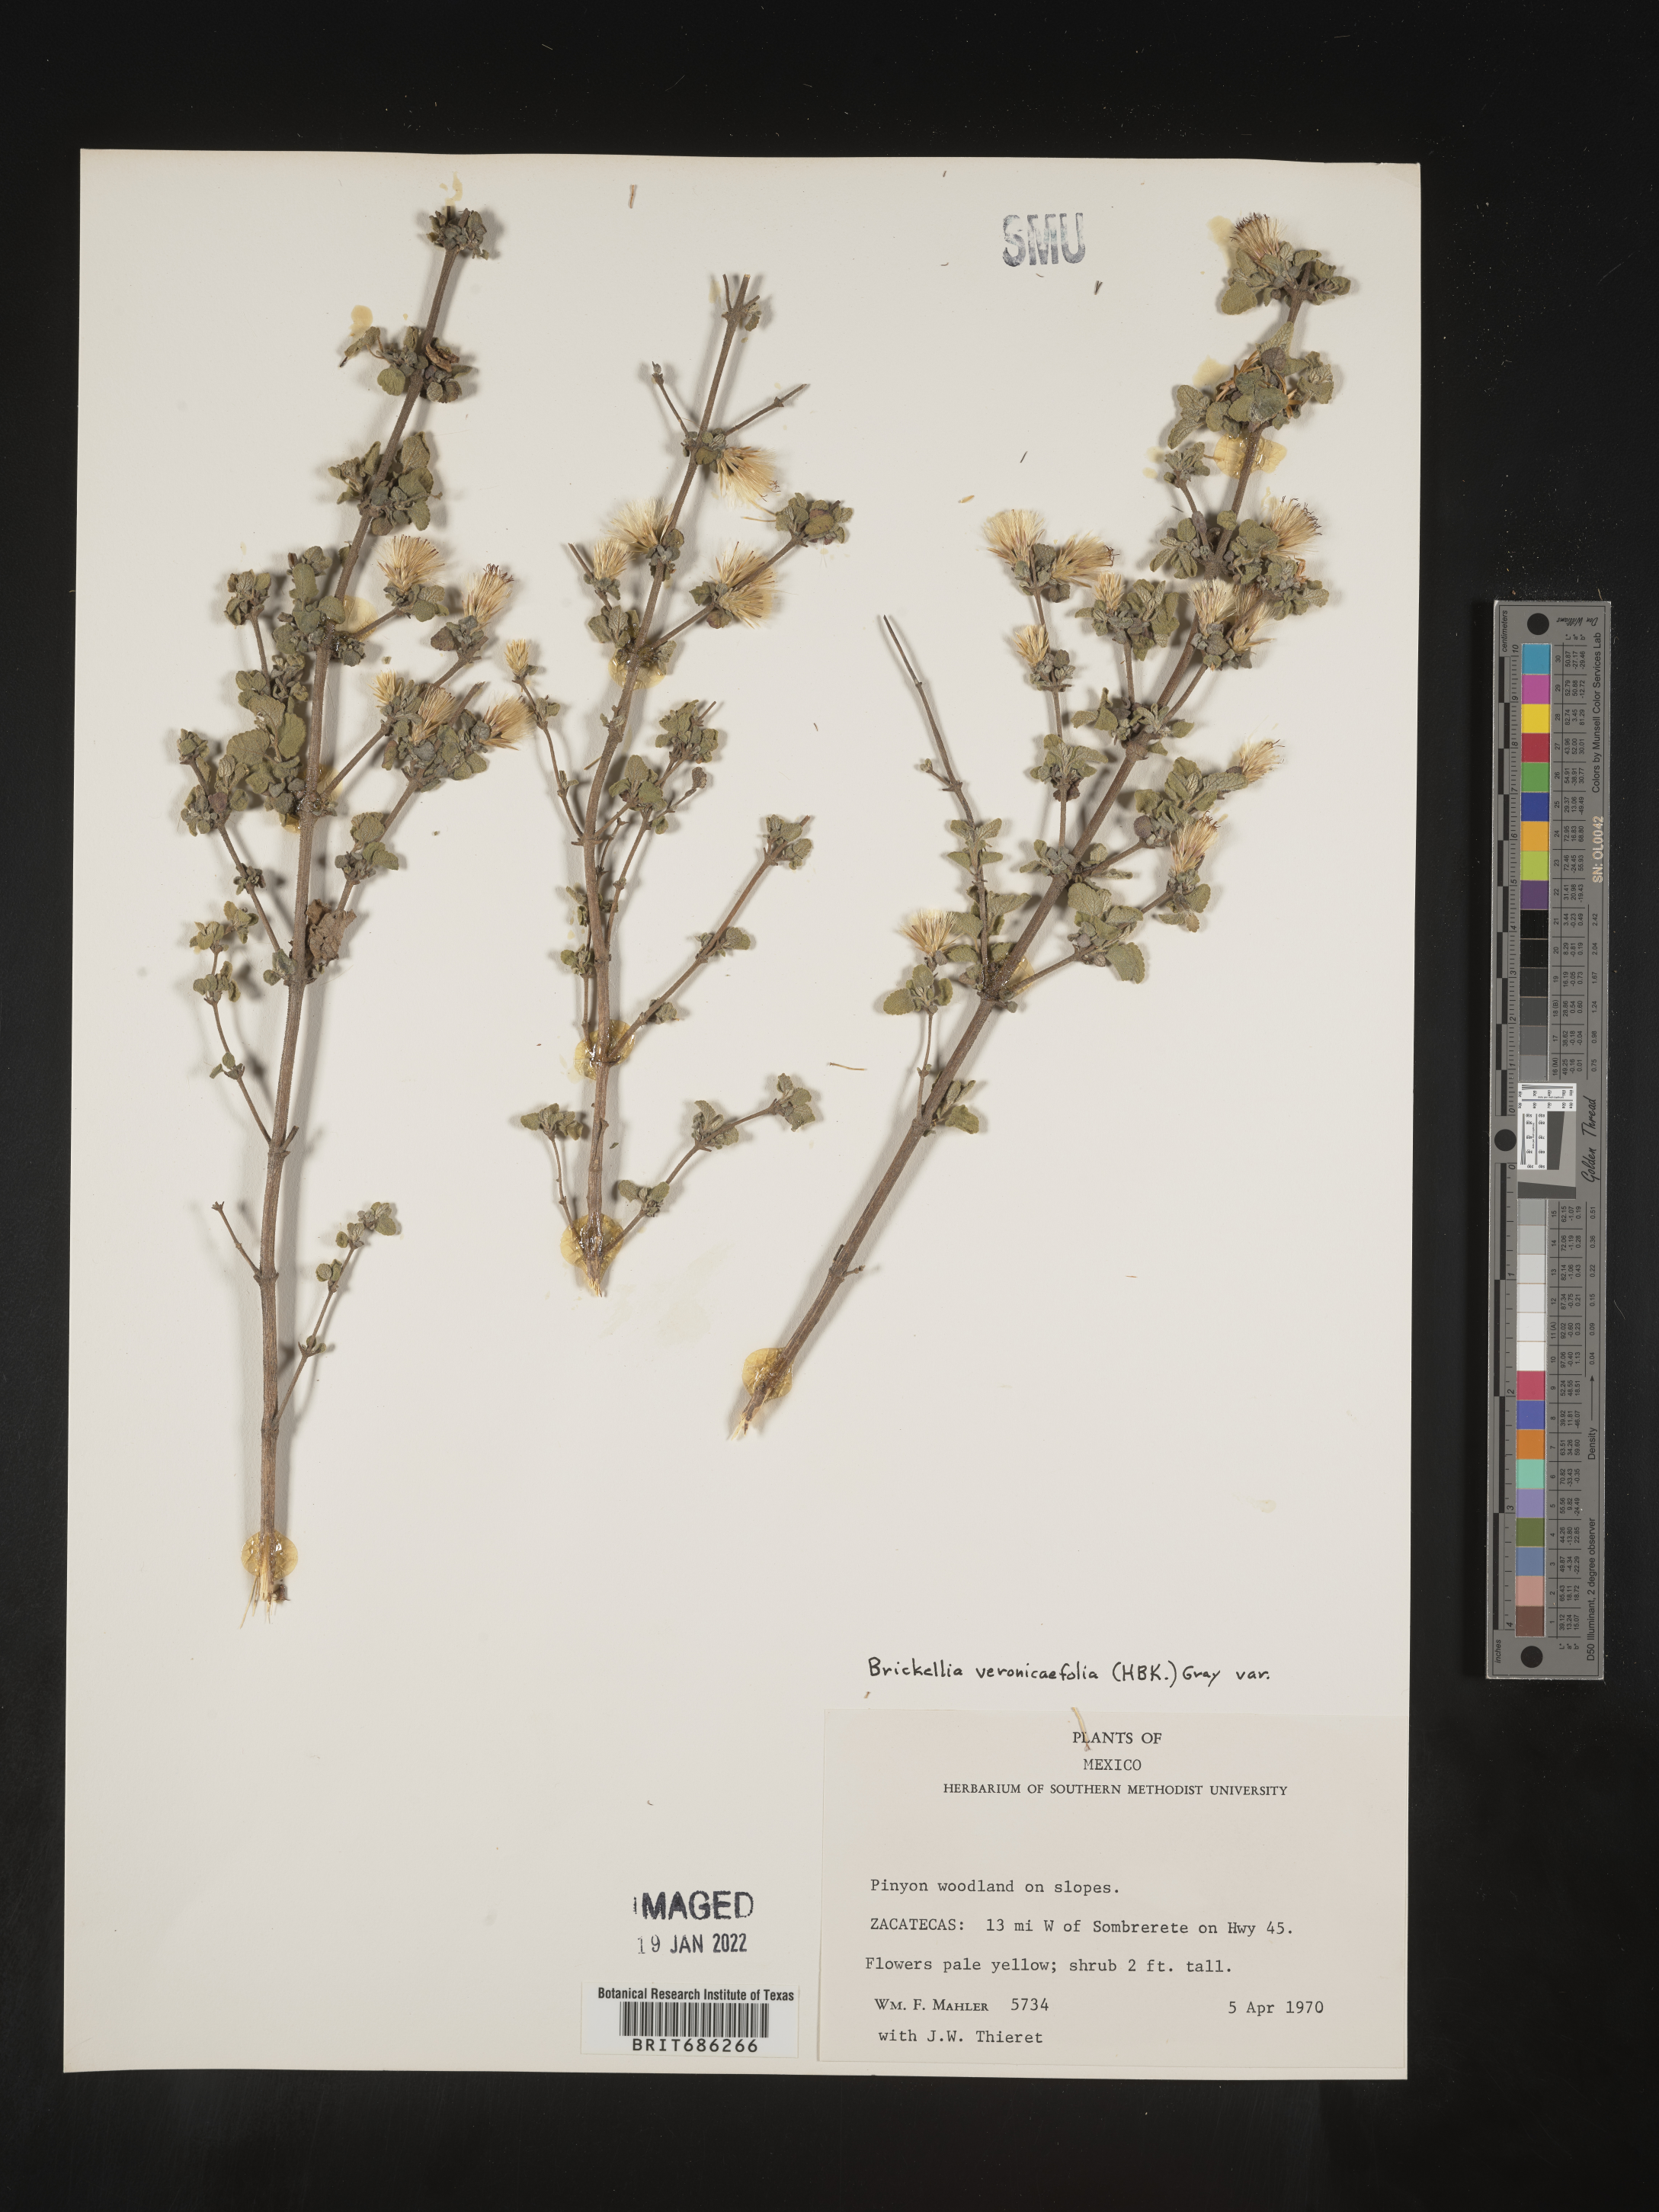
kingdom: Plantae
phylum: Tracheophyta
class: Magnoliopsida
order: Asterales
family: Asteraceae
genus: Brickellia
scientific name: Brickellia veronicifolia
